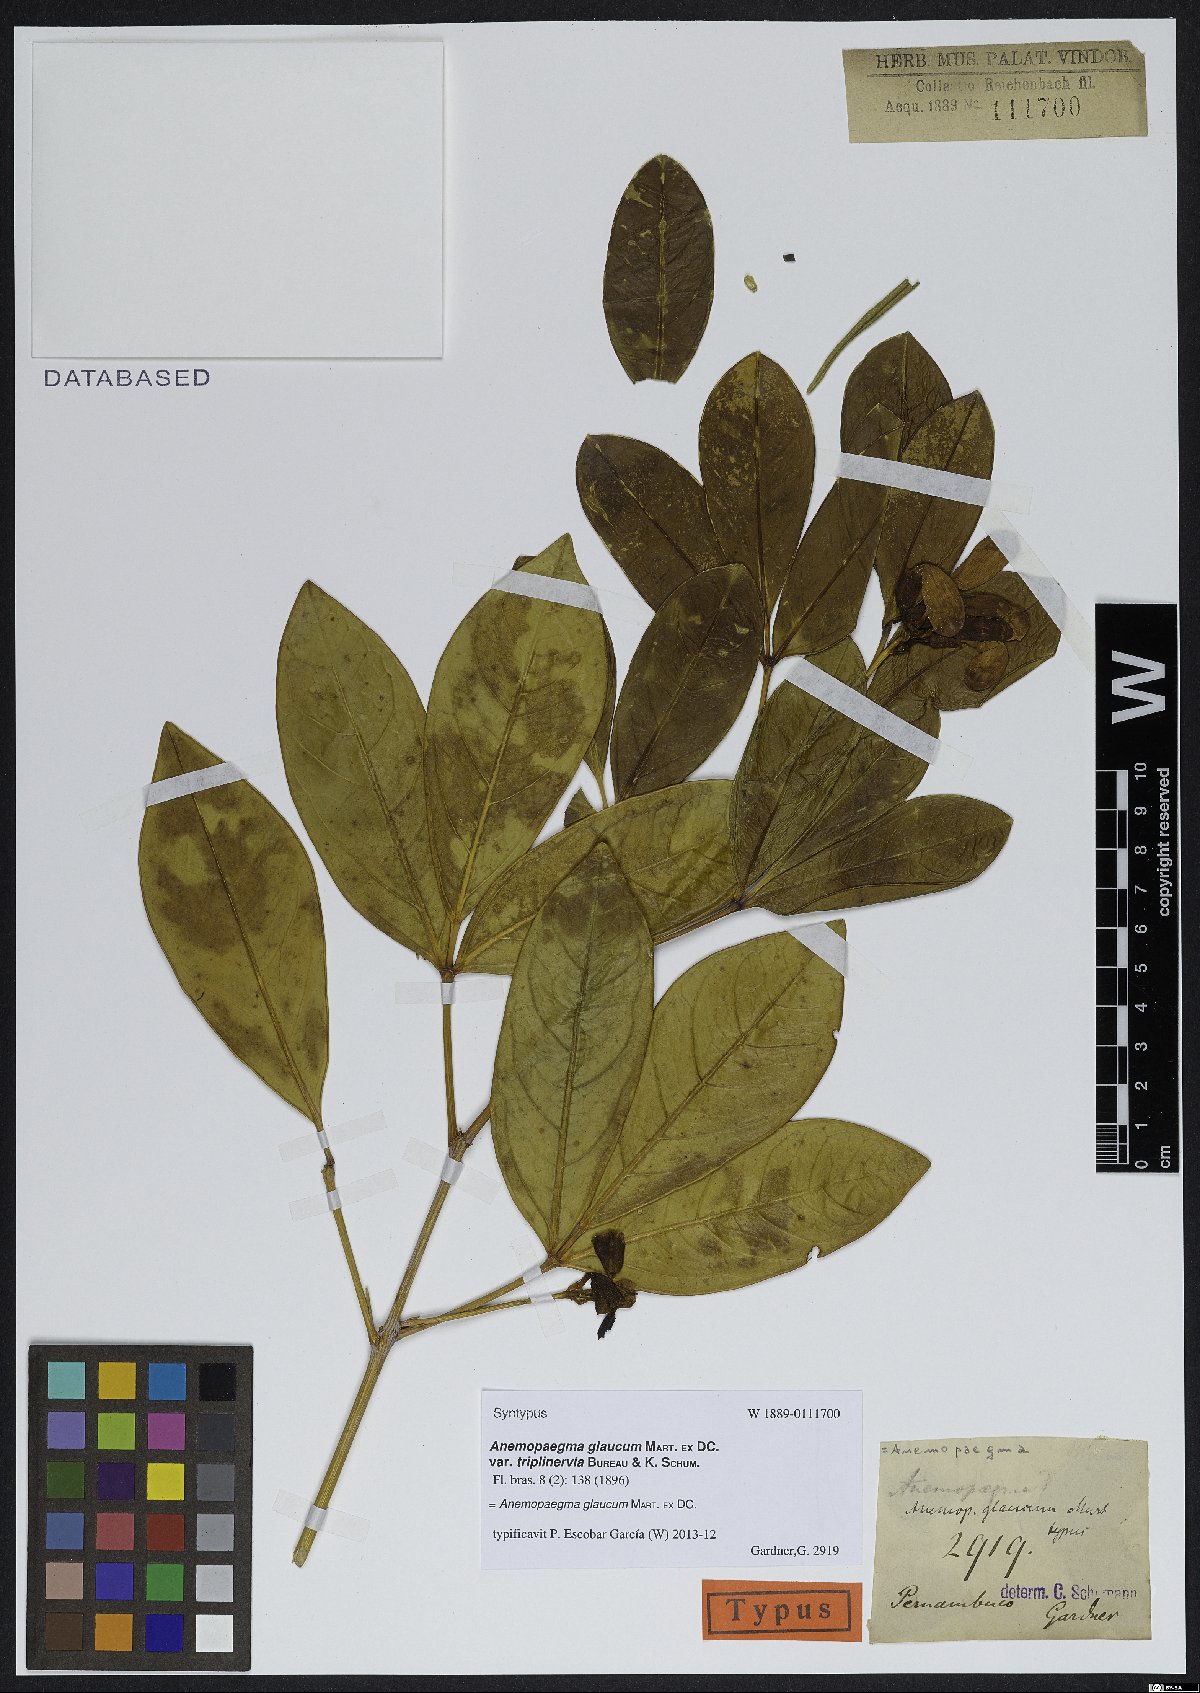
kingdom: Plantae
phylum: Tracheophyta
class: Magnoliopsida
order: Lamiales
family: Bignoniaceae
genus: Anemopaegma
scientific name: Anemopaegma glaucum
